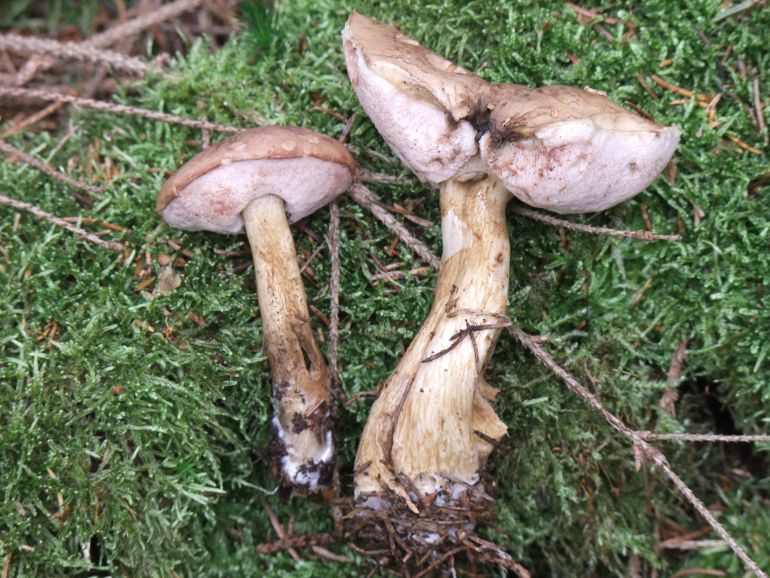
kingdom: Fungi
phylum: Basidiomycota
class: Agaricomycetes
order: Boletales
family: Boletaceae
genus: Tylopilus
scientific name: Tylopilus felleus
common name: galderørhat
